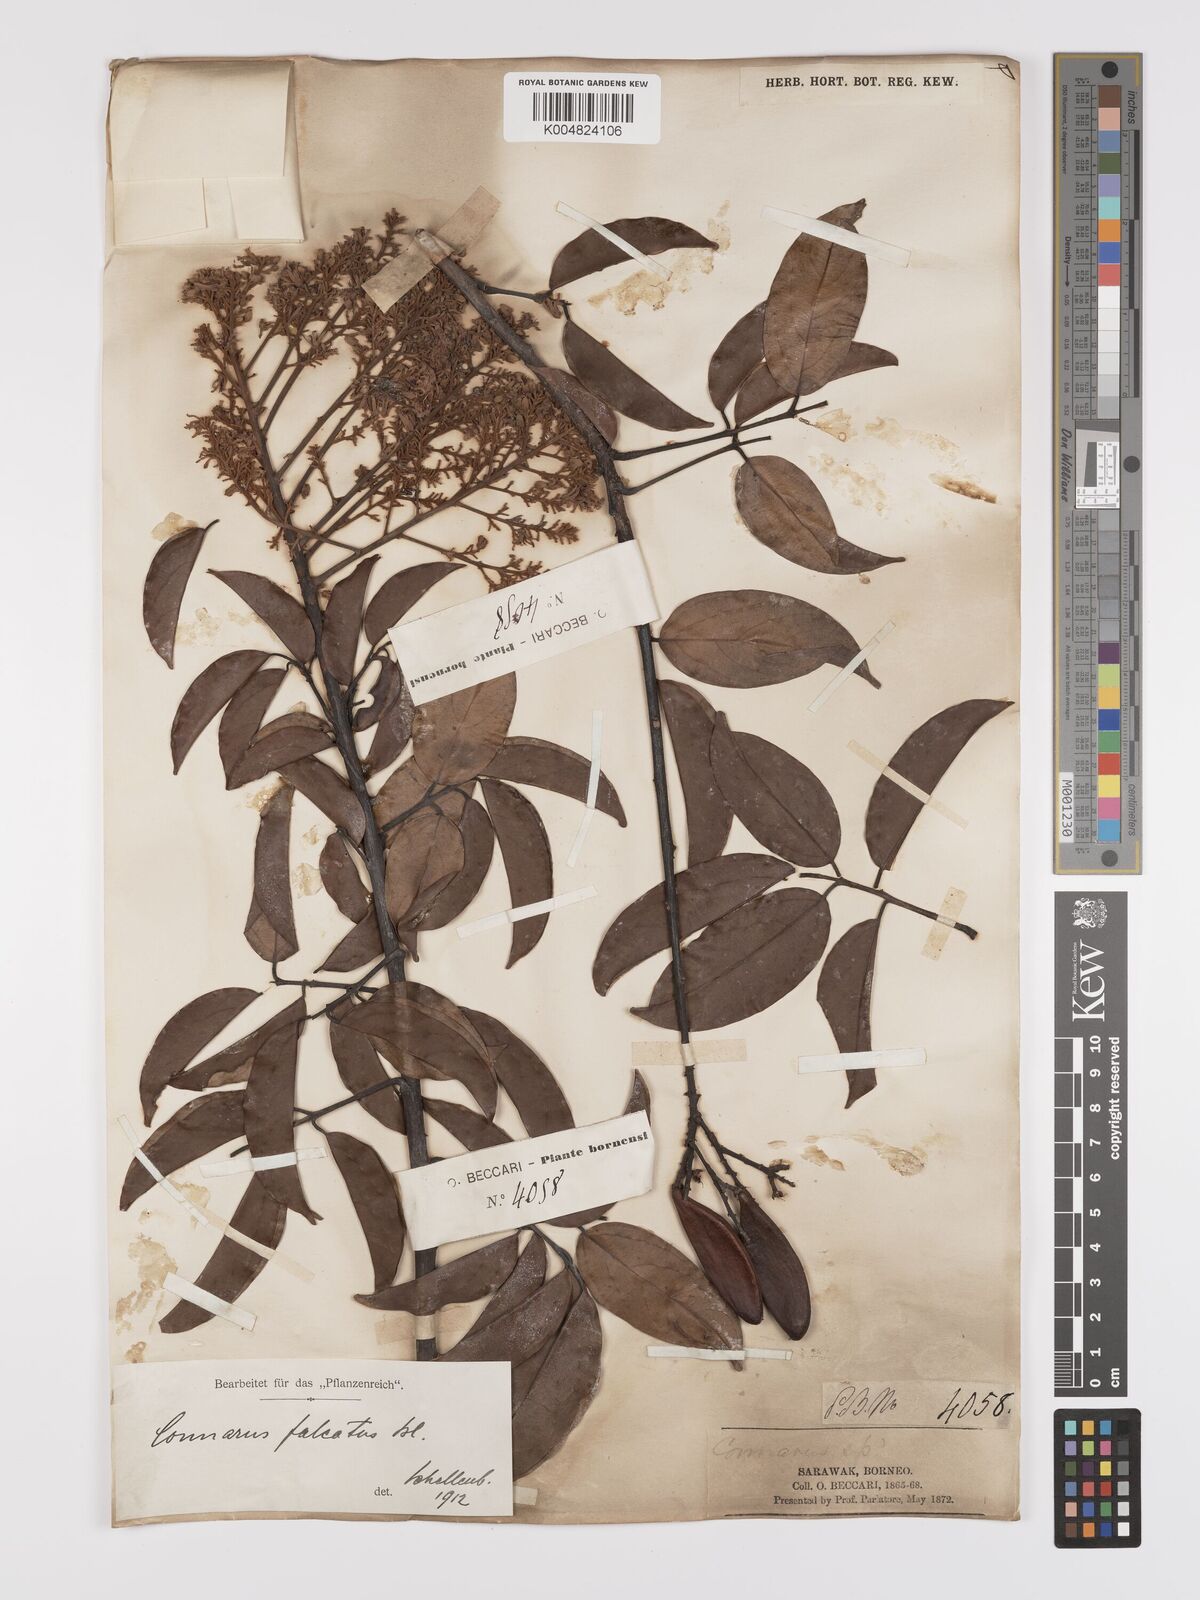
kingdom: Plantae
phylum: Tracheophyta
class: Magnoliopsida
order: Oxalidales
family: Connaraceae
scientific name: Connaraceae
